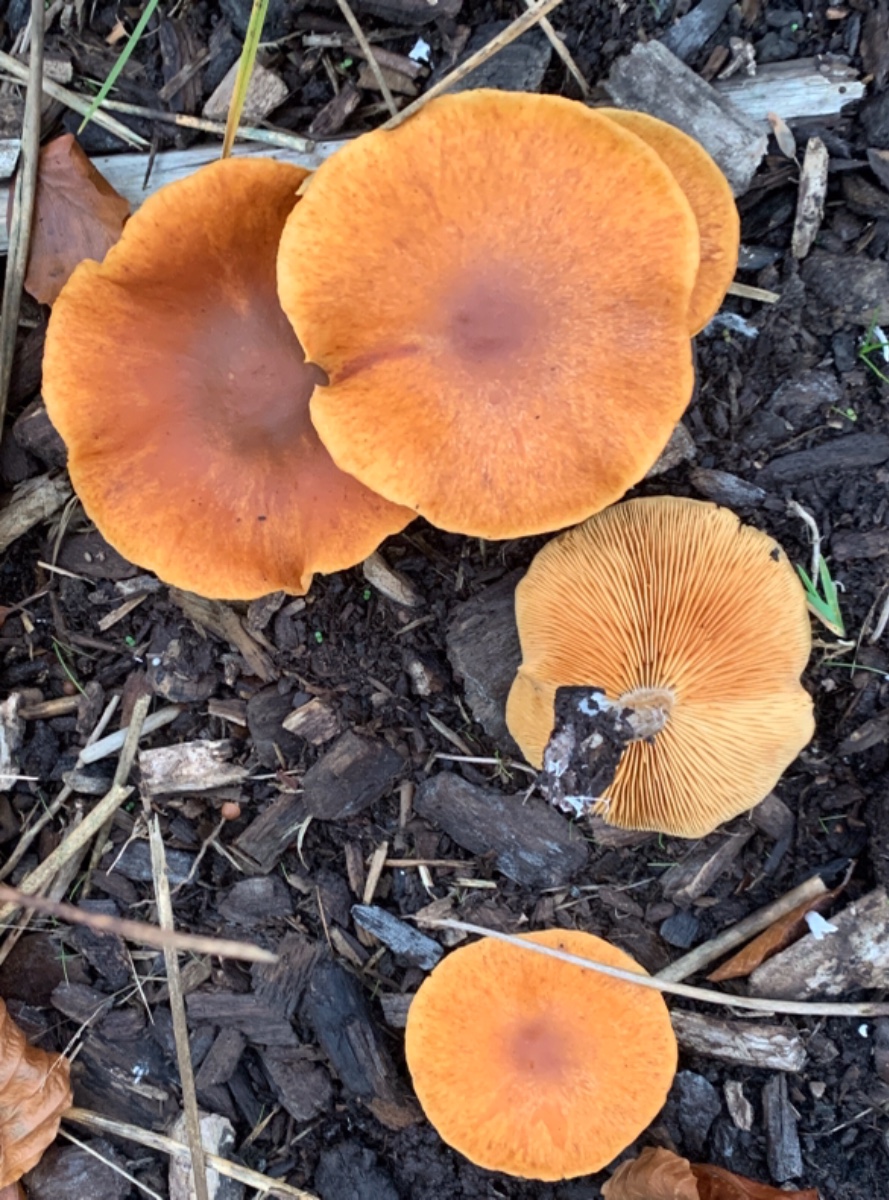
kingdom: Fungi
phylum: Basidiomycota
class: Agaricomycetes
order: Agaricales
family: Hymenogastraceae
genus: Gymnopilus
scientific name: Gymnopilus penetrans
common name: plettet flammehat
